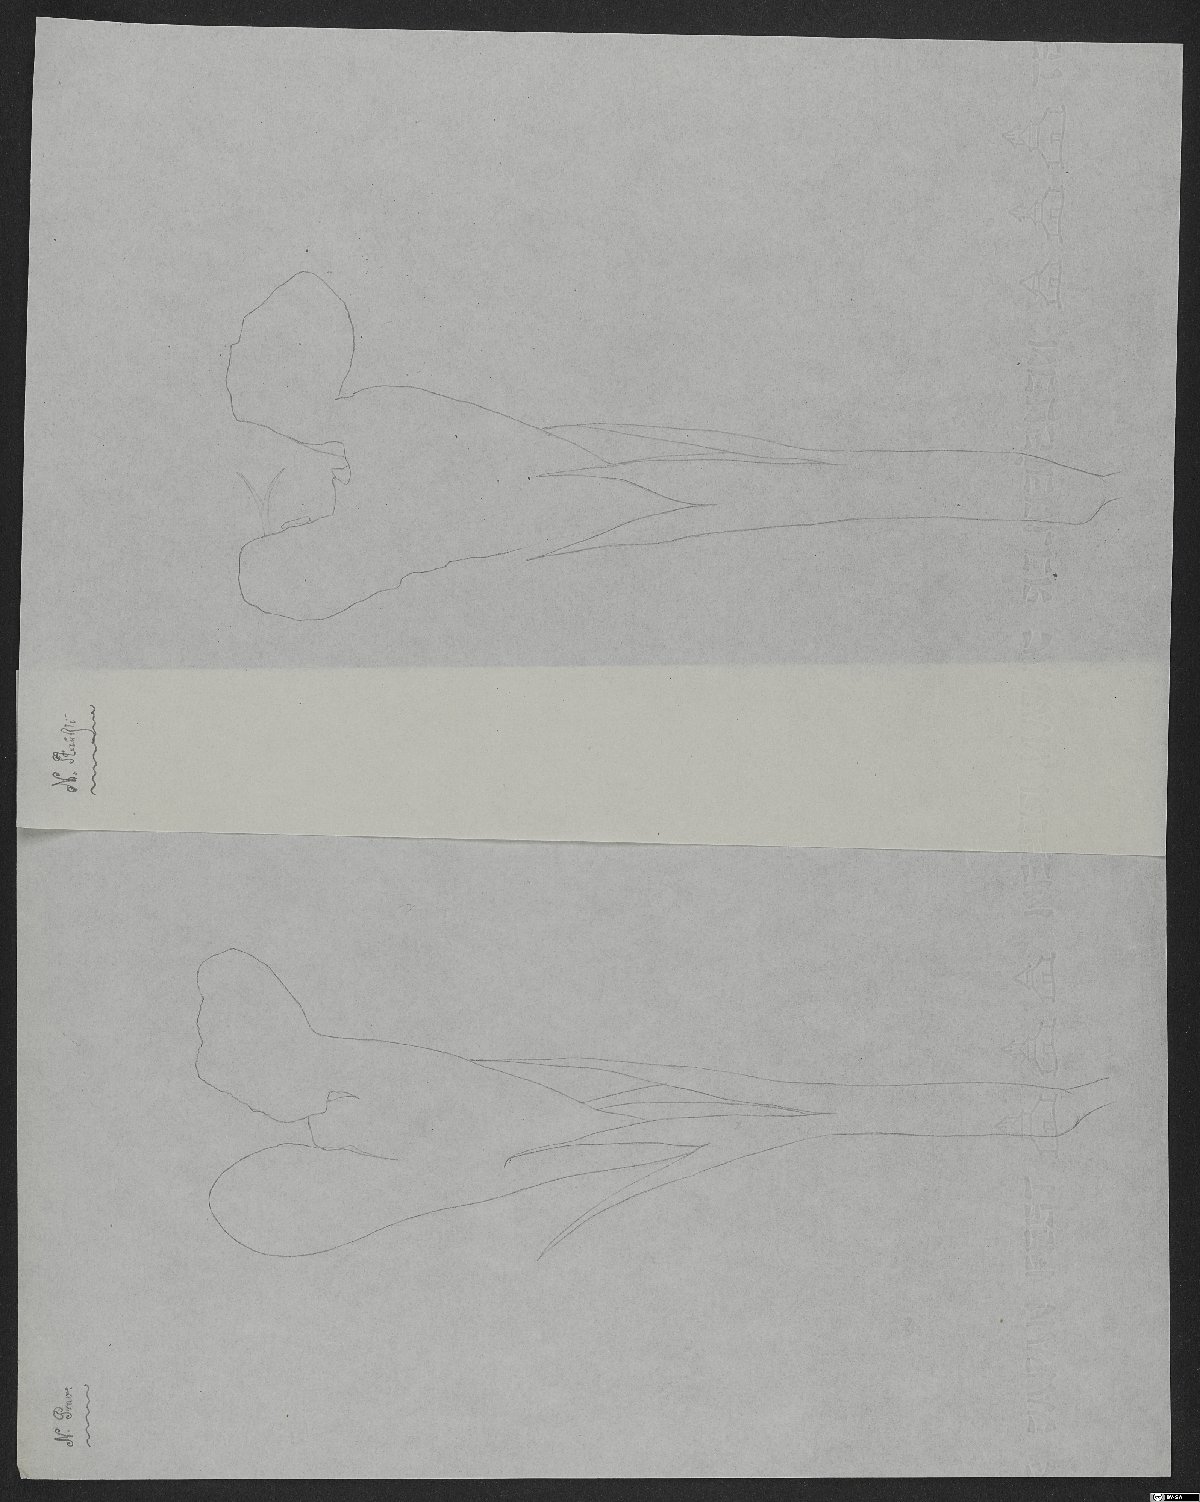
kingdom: Plantae
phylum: Tracheophyta
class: Magnoliopsida
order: Lamiales
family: Lamiaceae
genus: Nepeta
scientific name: Nepeta straussii
